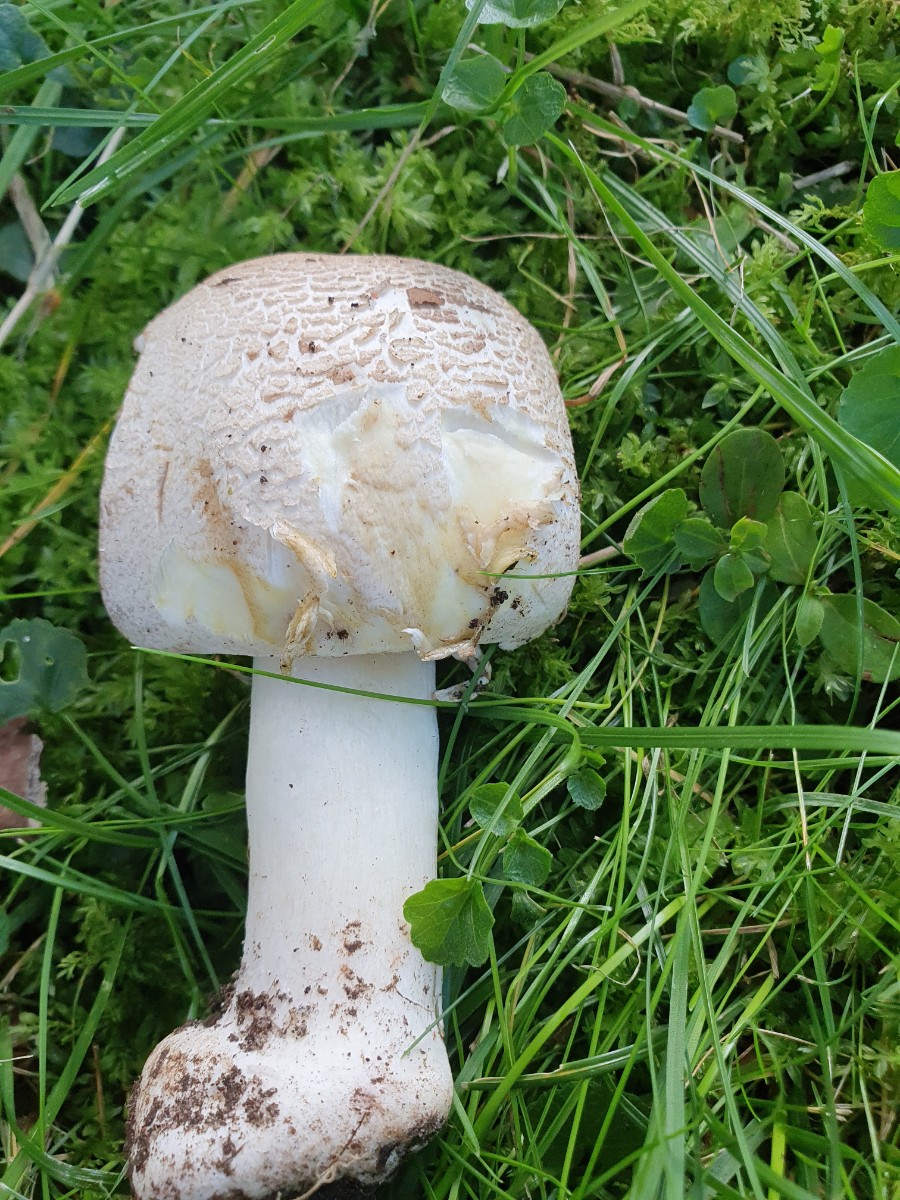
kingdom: Fungi
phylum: Basidiomycota
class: Agaricomycetes
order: Agaricales
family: Agaricaceae
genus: Agaricus
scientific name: Agaricus xanthodermus
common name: karbol-champignon
